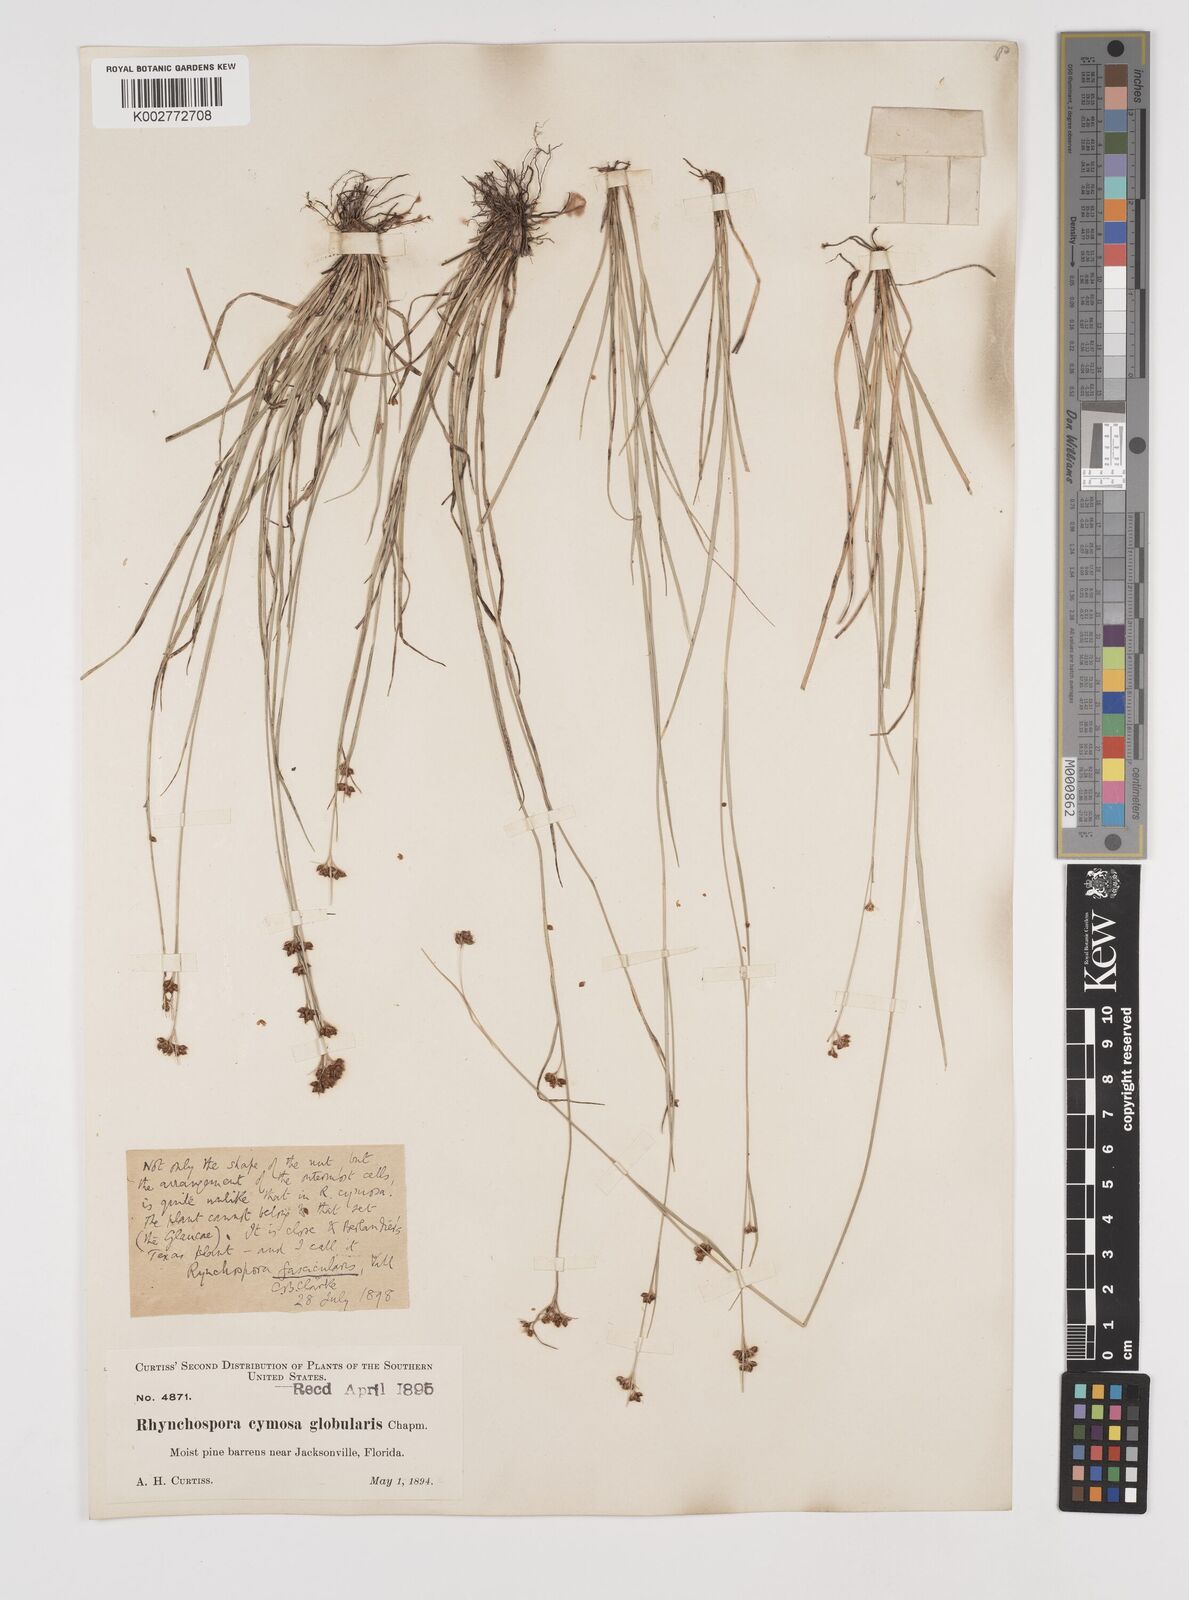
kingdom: Plantae
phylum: Tracheophyta
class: Liliopsida
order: Poales
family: Cyperaceae
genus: Rhynchospora
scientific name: Rhynchospora fascicularis
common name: Fascicled beak sedge
